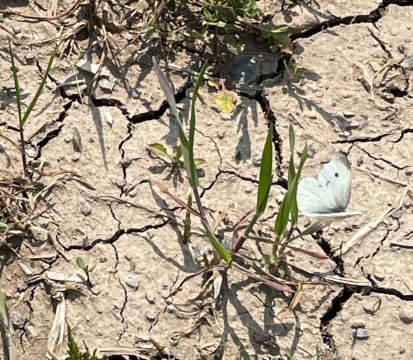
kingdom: Animalia
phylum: Arthropoda
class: Insecta
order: Lepidoptera
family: Pieridae
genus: Pieris
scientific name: Pieris rapae
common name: Cabbage White
